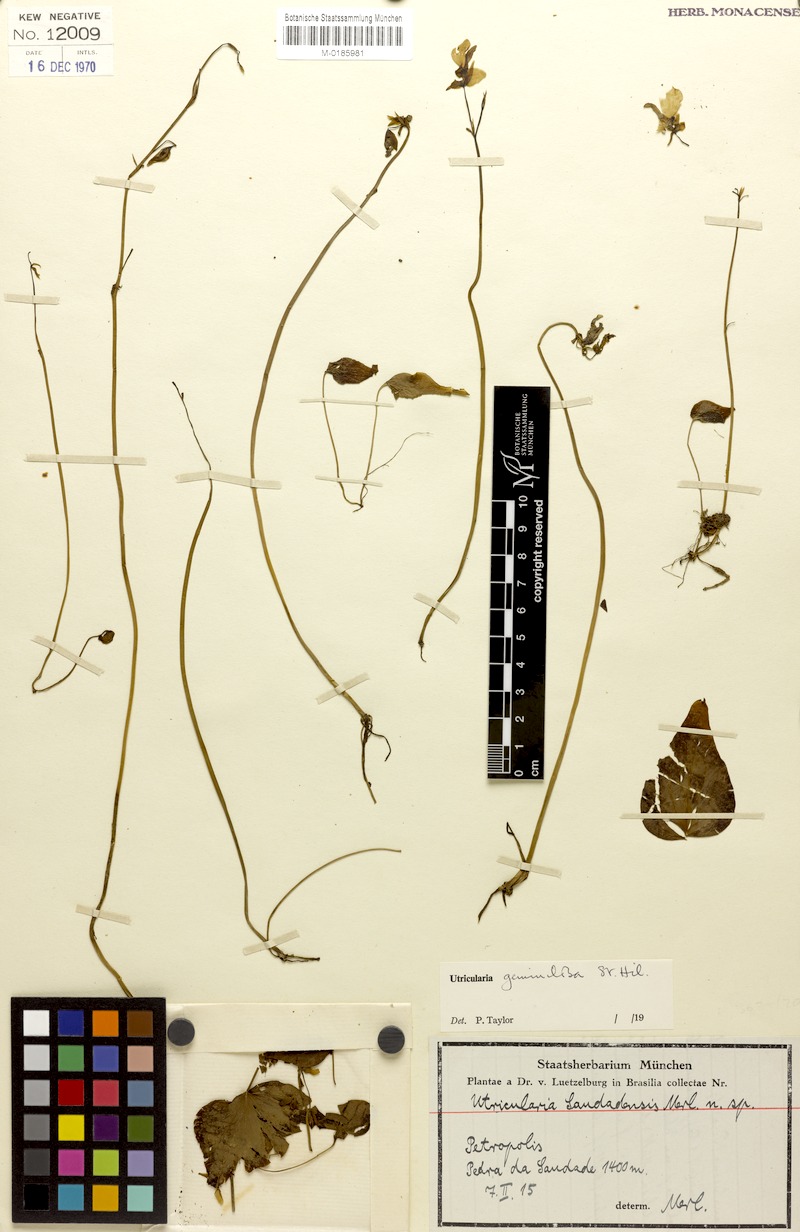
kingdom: Plantae
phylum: Tracheophyta
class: Magnoliopsida
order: Lamiales
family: Lentibulariaceae
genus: Utricularia
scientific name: Utricularia geminiloba
